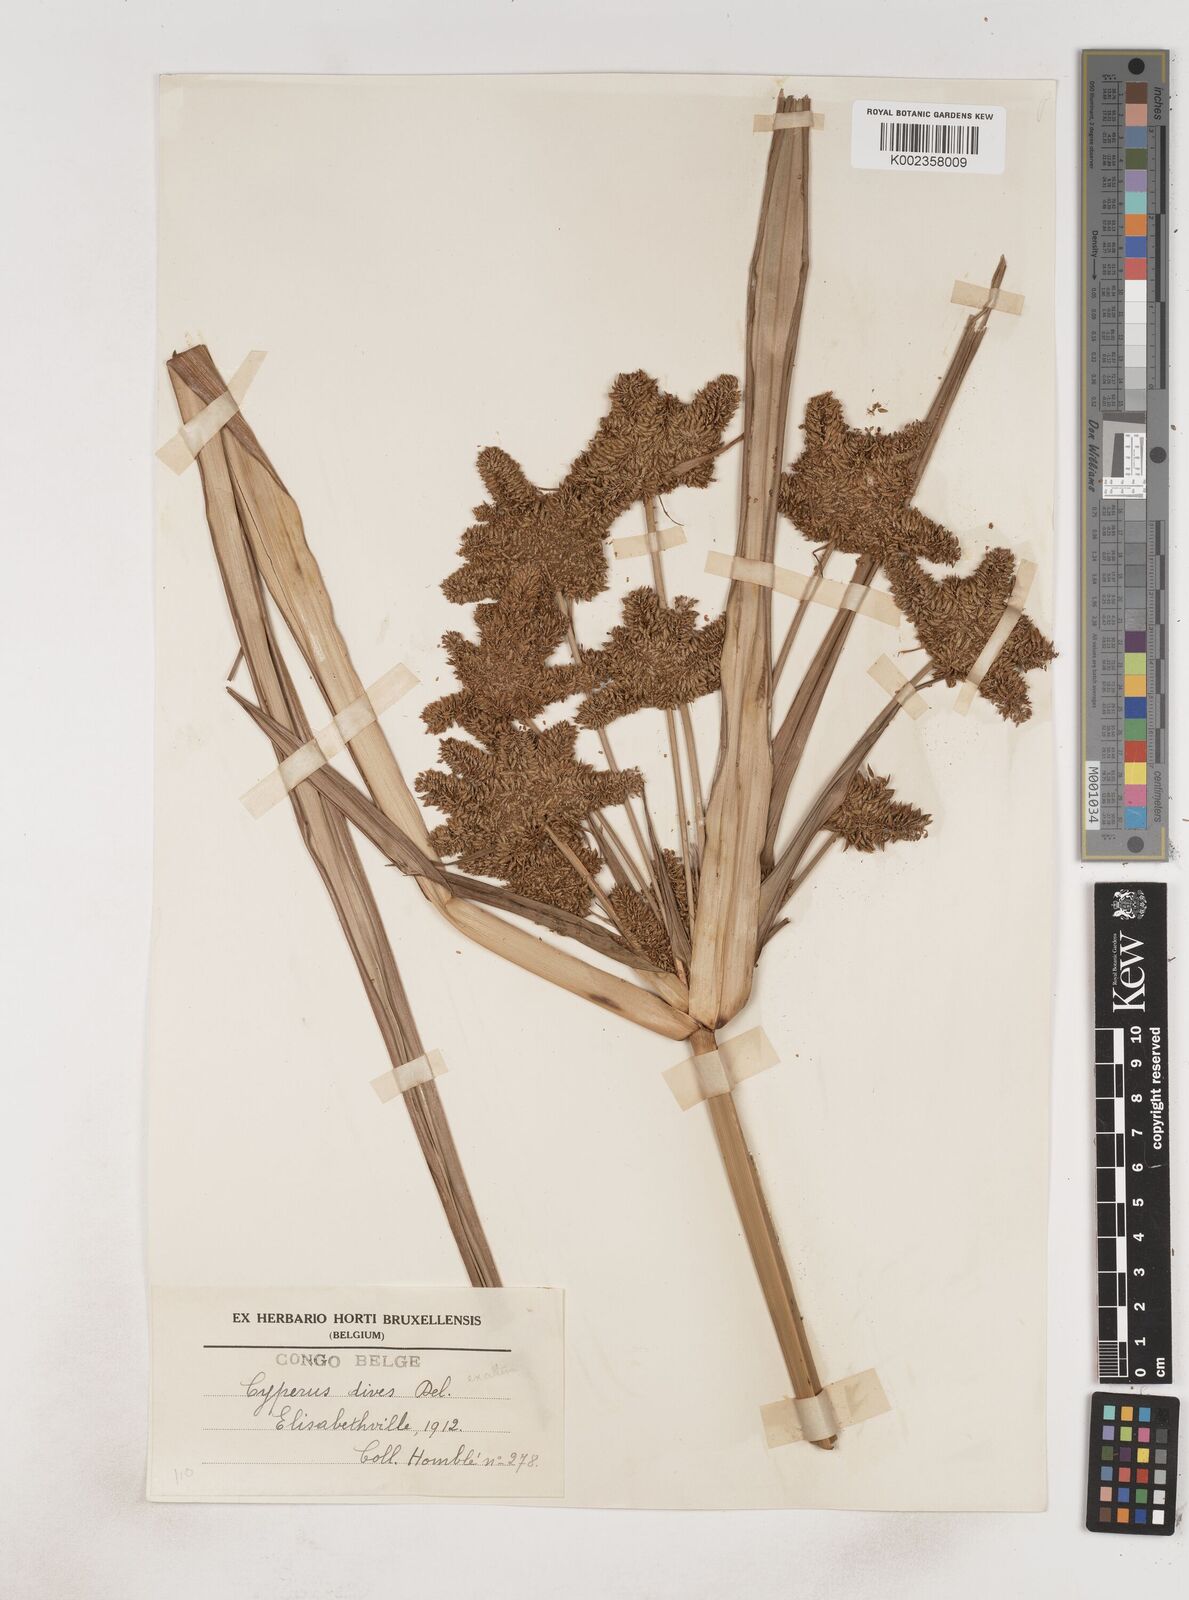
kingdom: Plantae
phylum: Tracheophyta
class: Liliopsida
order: Poales
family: Cyperaceae
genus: Cyperus
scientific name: Cyperus dives
